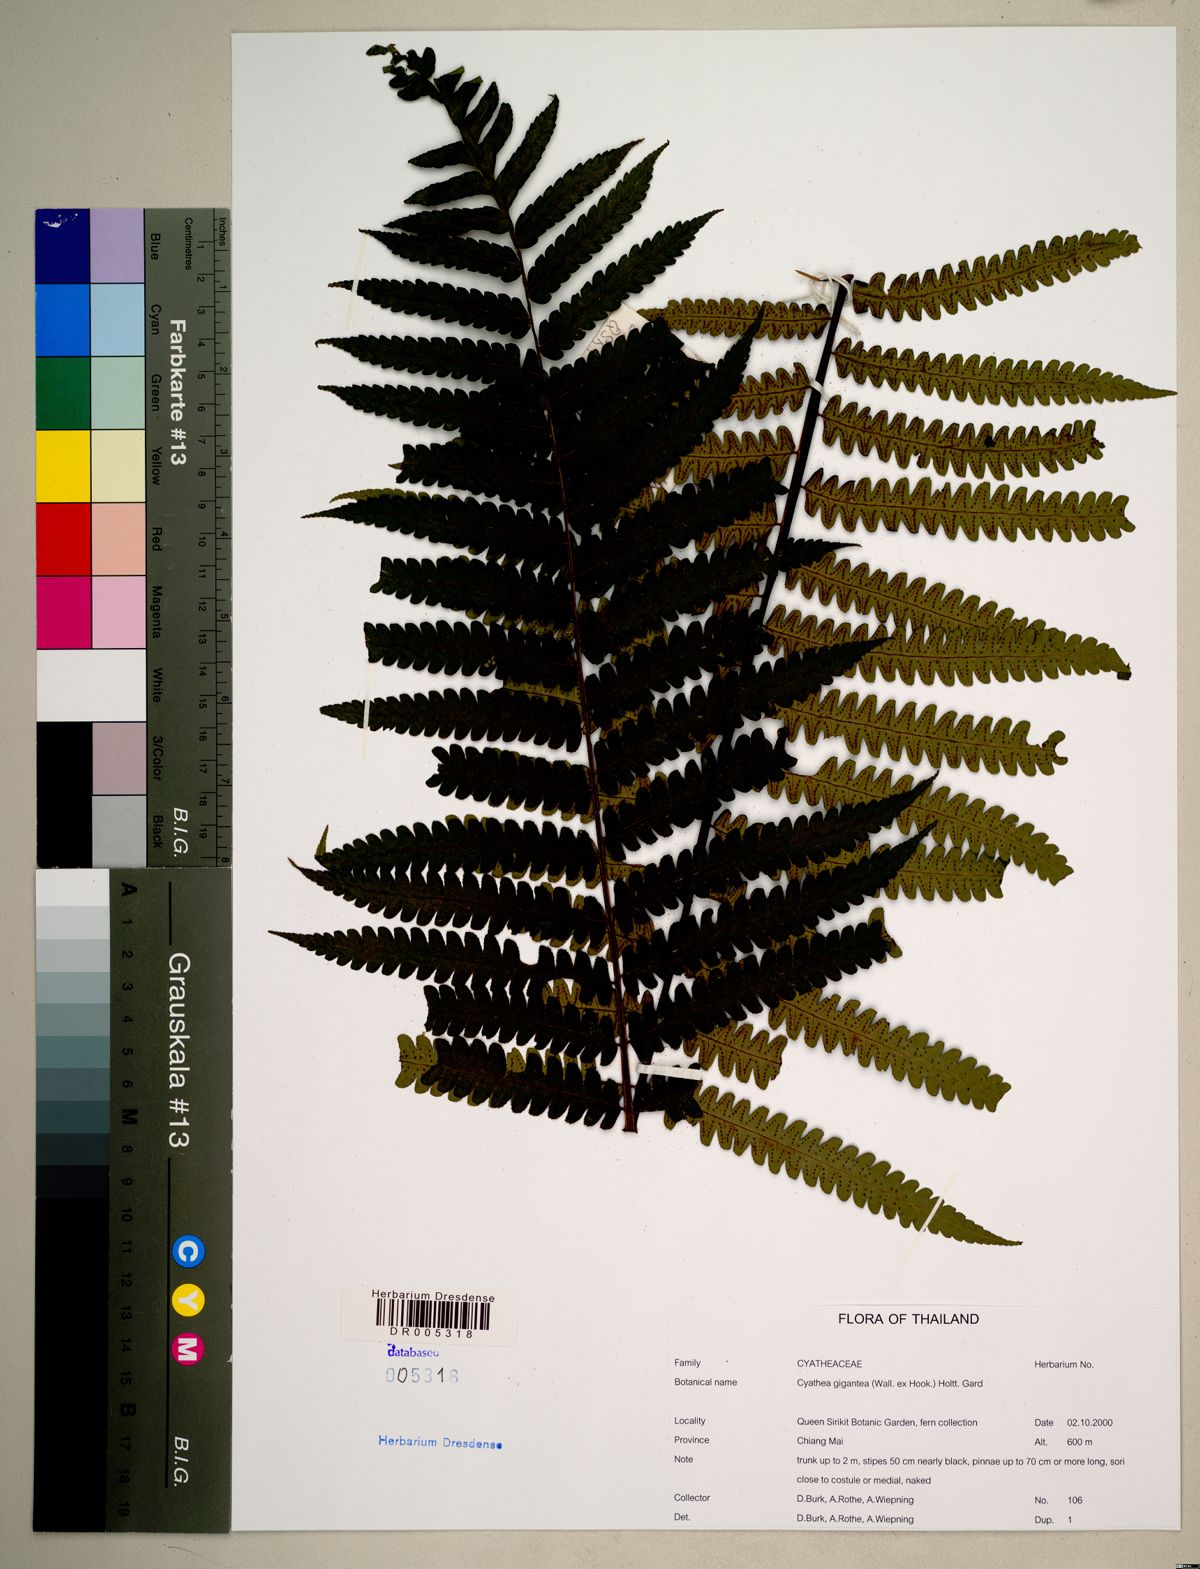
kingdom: Plantae
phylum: Tracheophyta
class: Polypodiopsida
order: Cyatheales
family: Cyatheaceae
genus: Gymnosphaera
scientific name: Gymnosphaera gigantea
